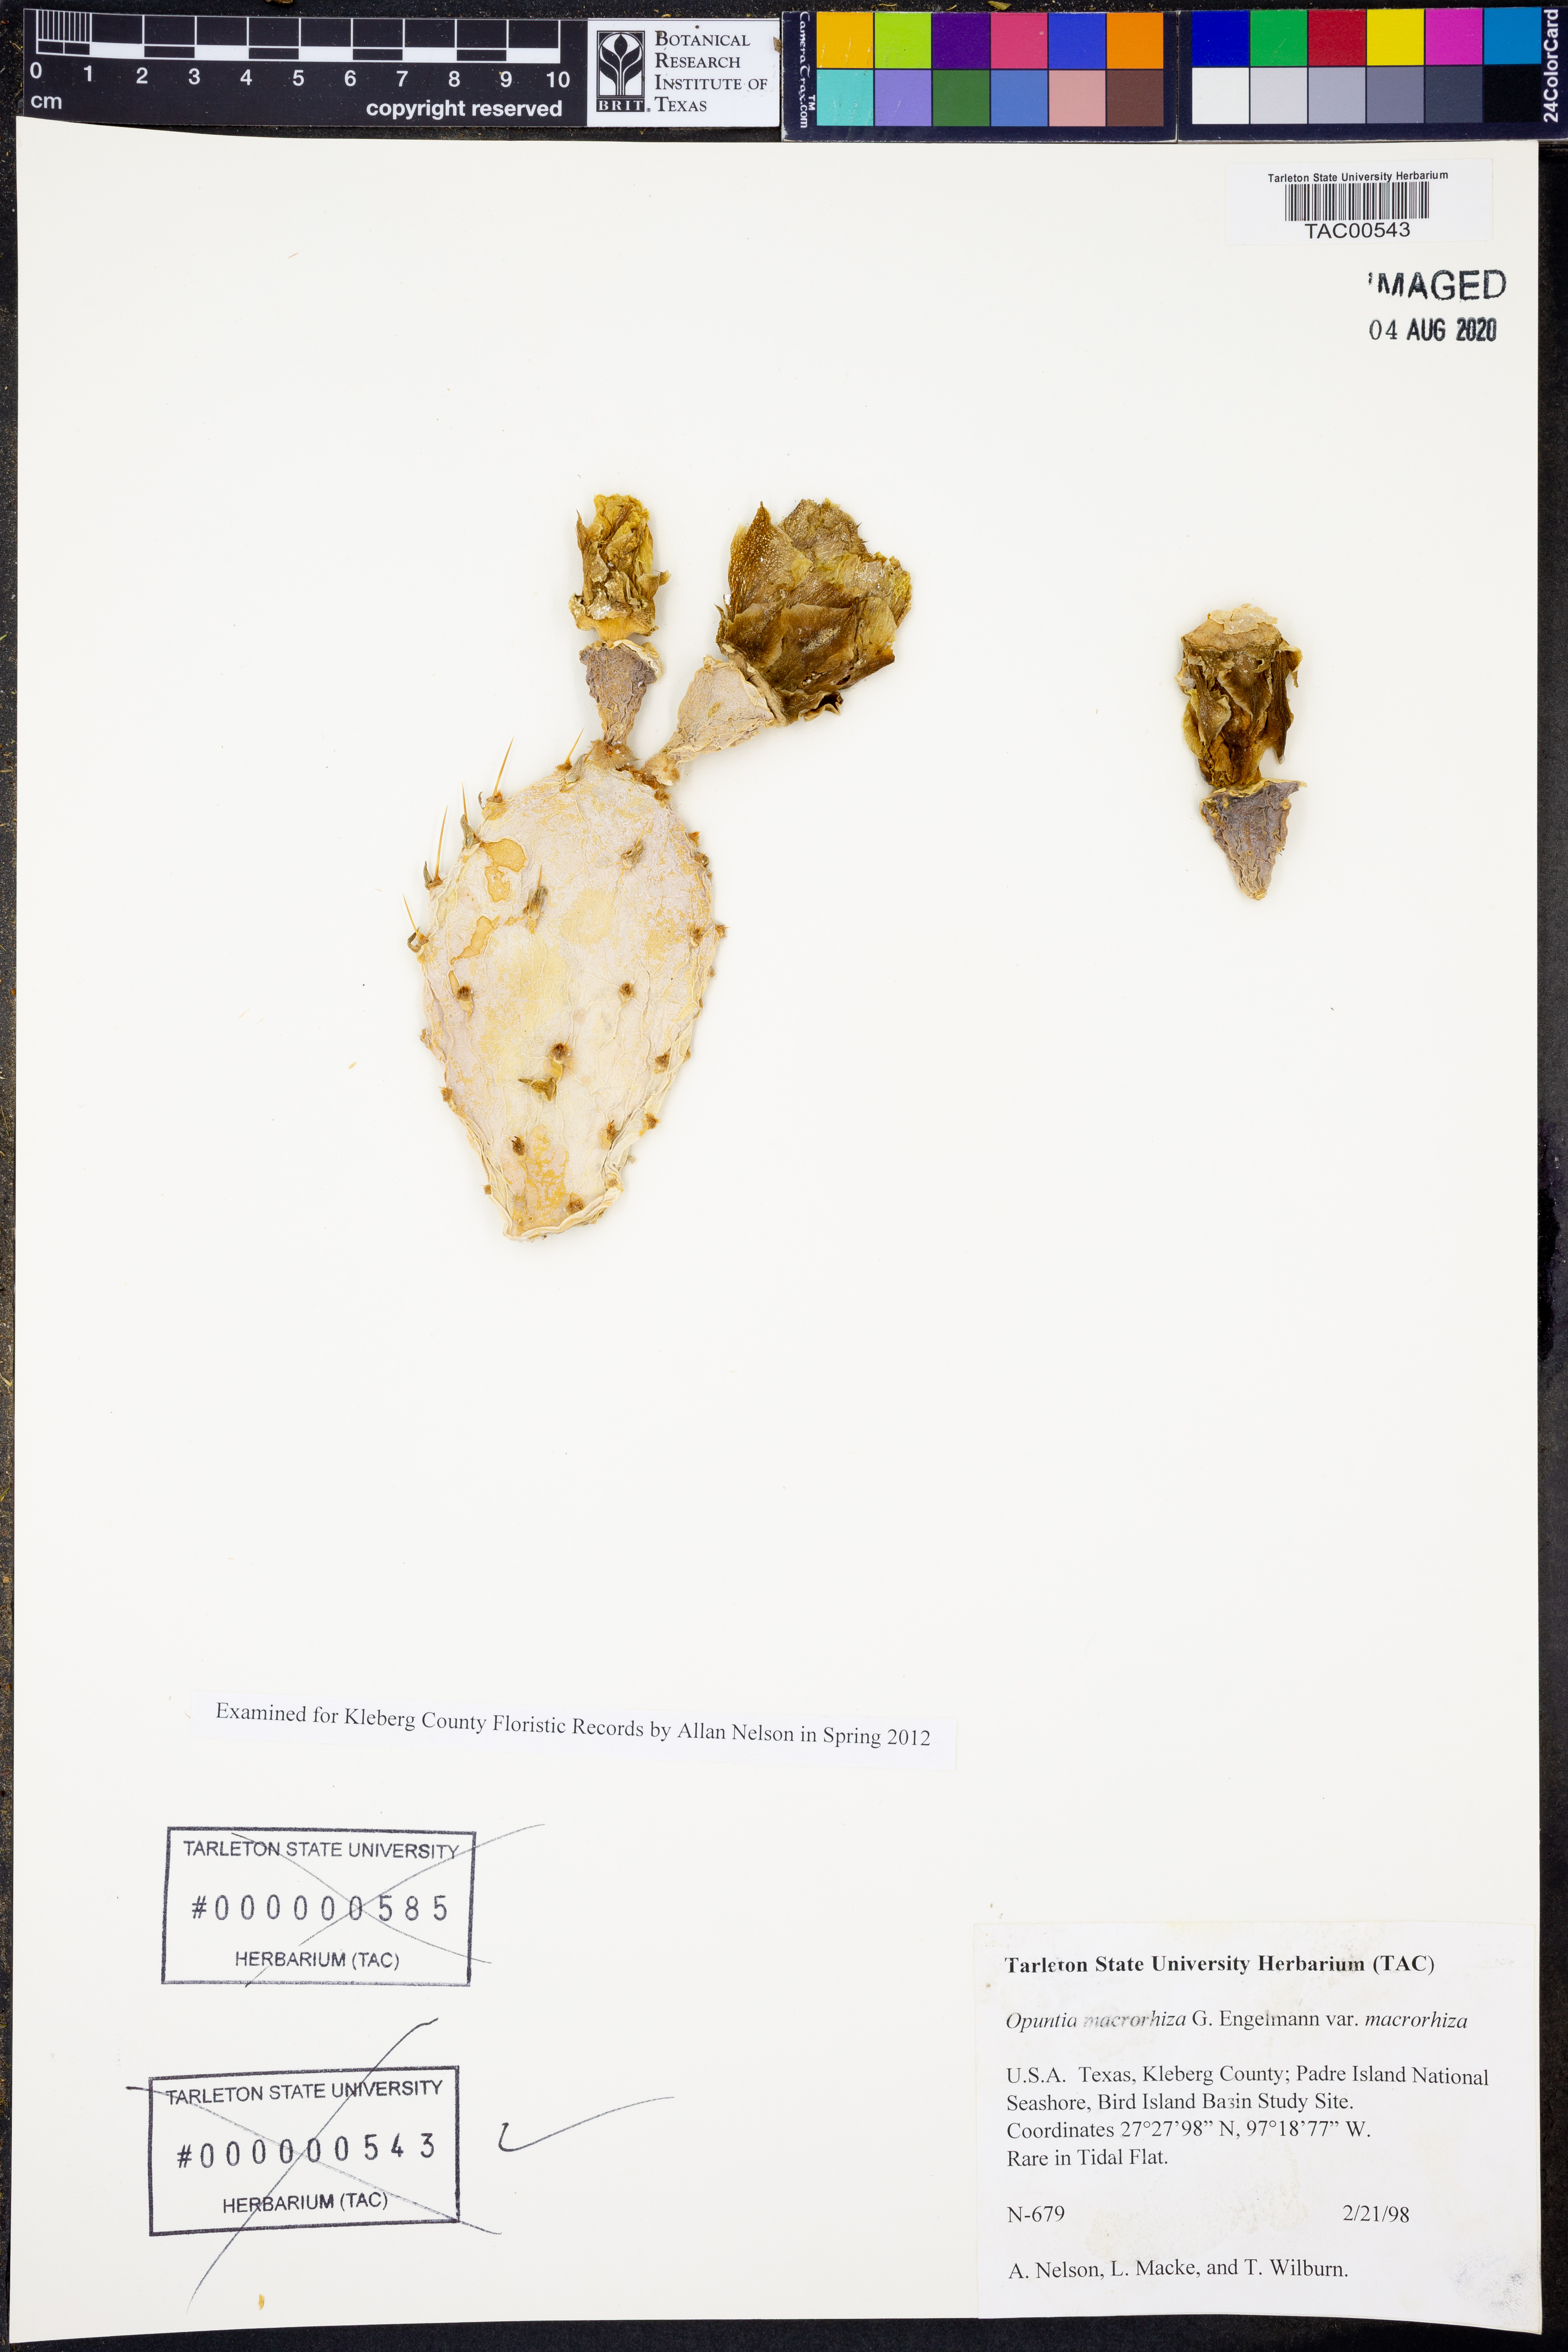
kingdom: Plantae
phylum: Tracheophyta
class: Magnoliopsida
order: Caryophyllales
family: Cactaceae
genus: Opuntia
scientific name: Opuntia macrorhiza
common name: Grassland pricklypear
